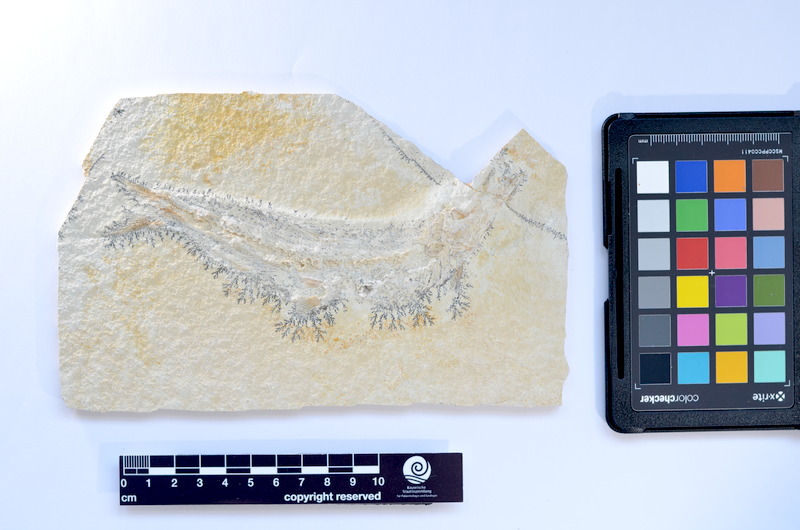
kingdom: Animalia
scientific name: Animalia
